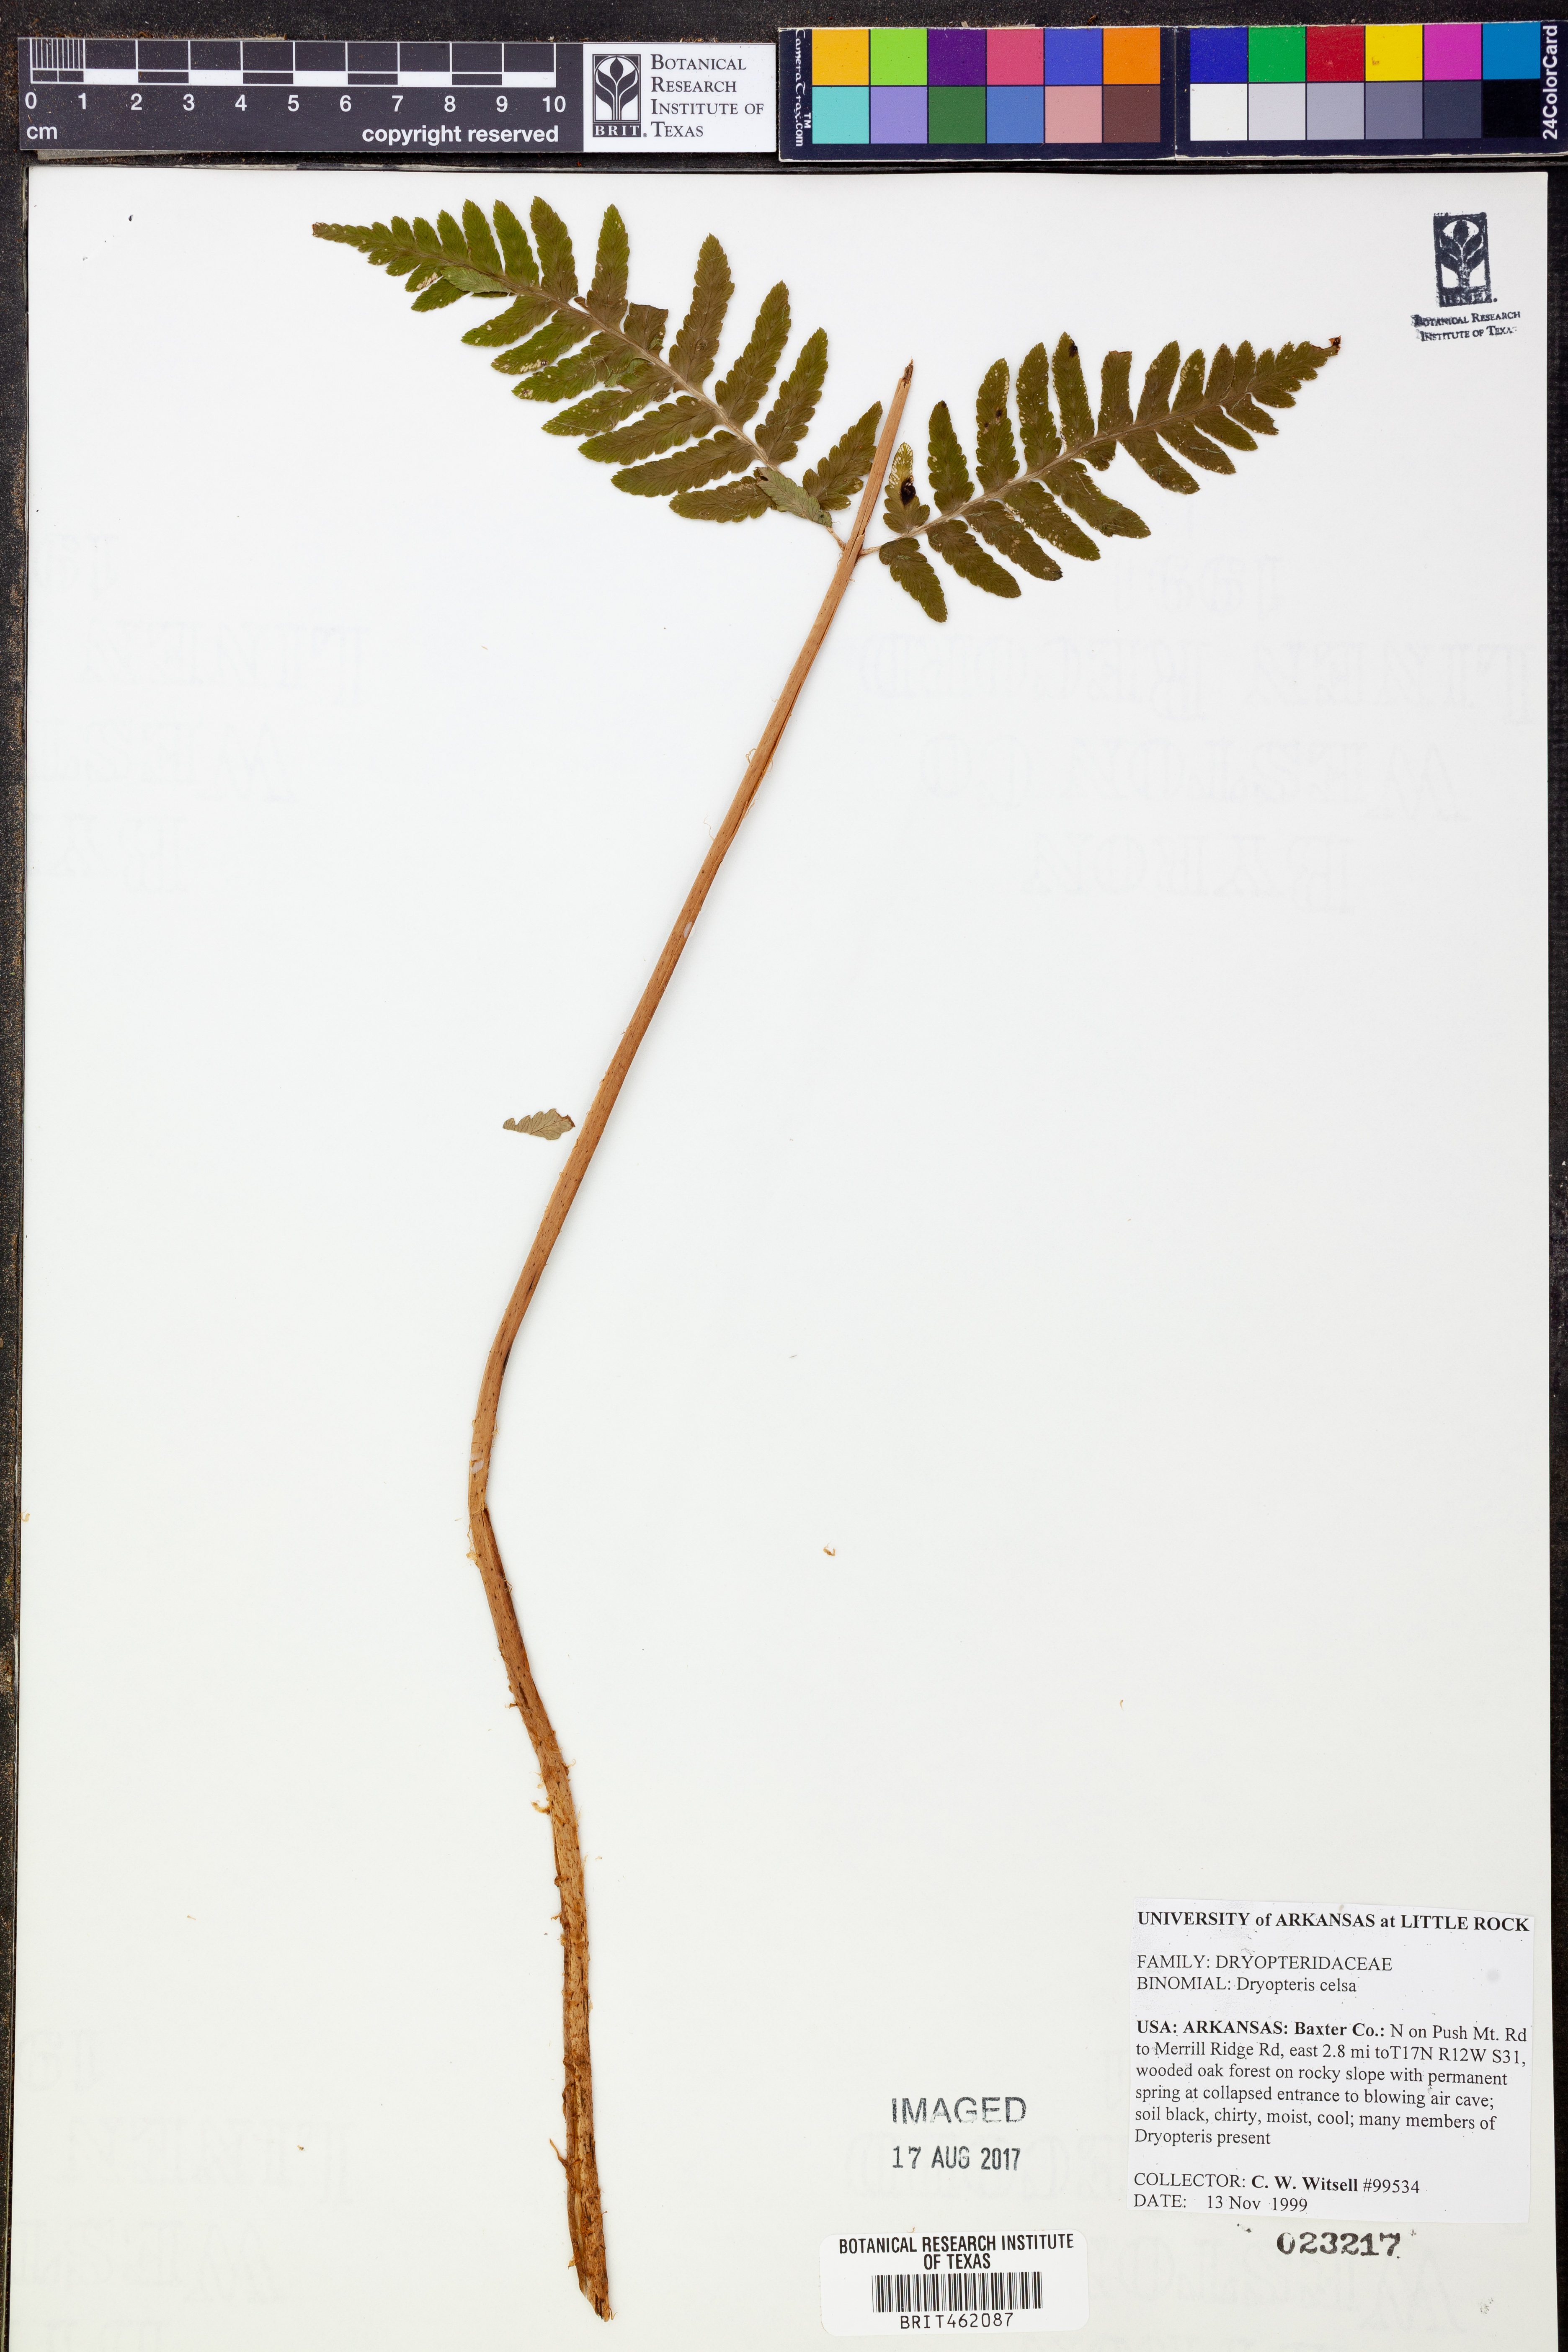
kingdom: Plantae
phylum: Tracheophyta
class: Polypodiopsida
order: Polypodiales
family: Dryopteridaceae
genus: Dryopteris
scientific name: Dryopteris celsa
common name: Log fern
